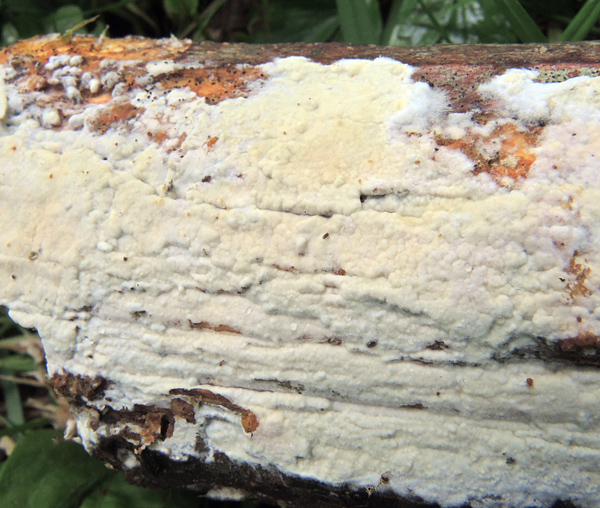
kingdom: Fungi
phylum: Basidiomycota
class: Agaricomycetes
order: Polyporales
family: Phanerochaetaceae
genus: Phanerochaete
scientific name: Phanerochaete sordida
